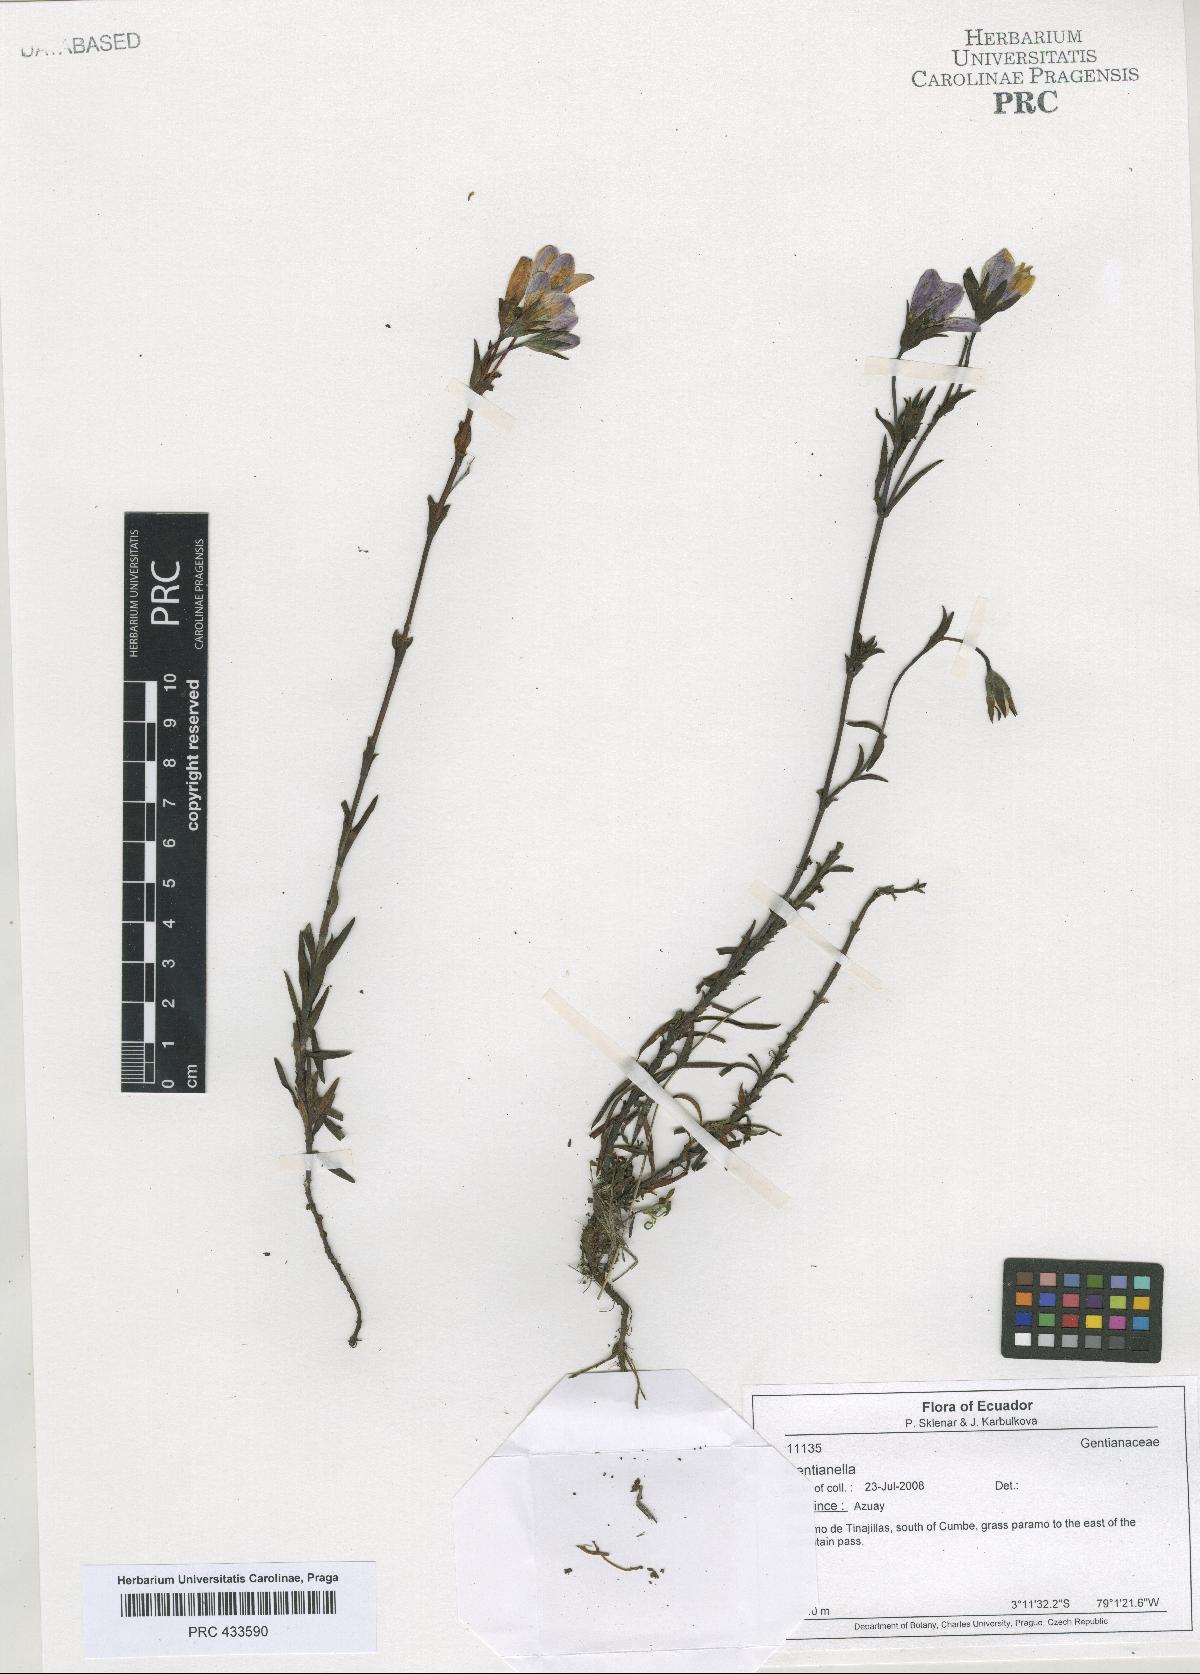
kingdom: Plantae
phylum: Tracheophyta
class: Magnoliopsida
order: Gentianales
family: Gentianaceae
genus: Gentianella
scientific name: Gentianella
